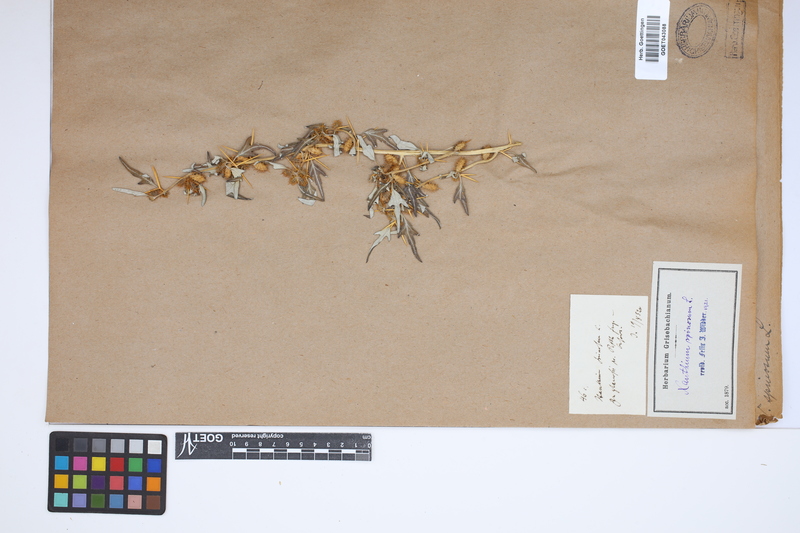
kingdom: Plantae
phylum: Tracheophyta
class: Magnoliopsida
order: Asterales
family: Asteraceae
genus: Xanthium
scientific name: Xanthium spinosum
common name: Spiny cocklebur
